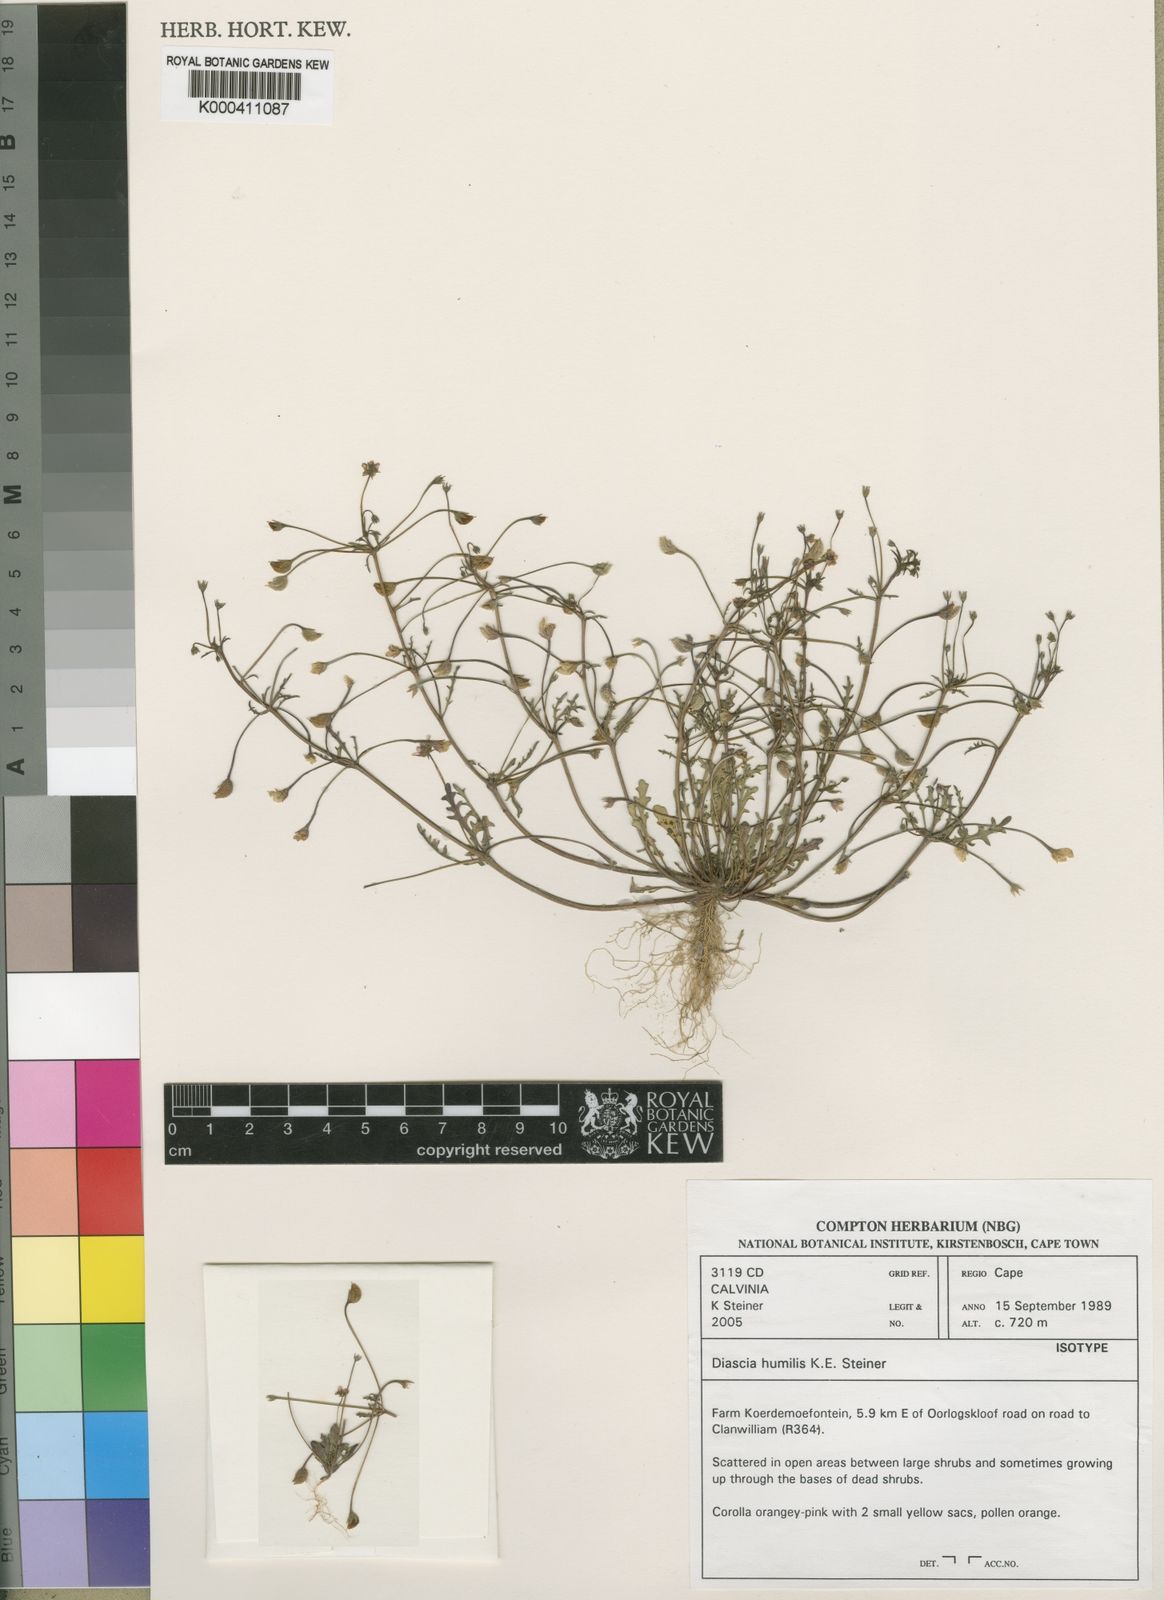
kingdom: Plantae
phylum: Tracheophyta
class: Magnoliopsida
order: Lamiales
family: Scrophulariaceae
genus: Diascia
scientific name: Diascia humilis
